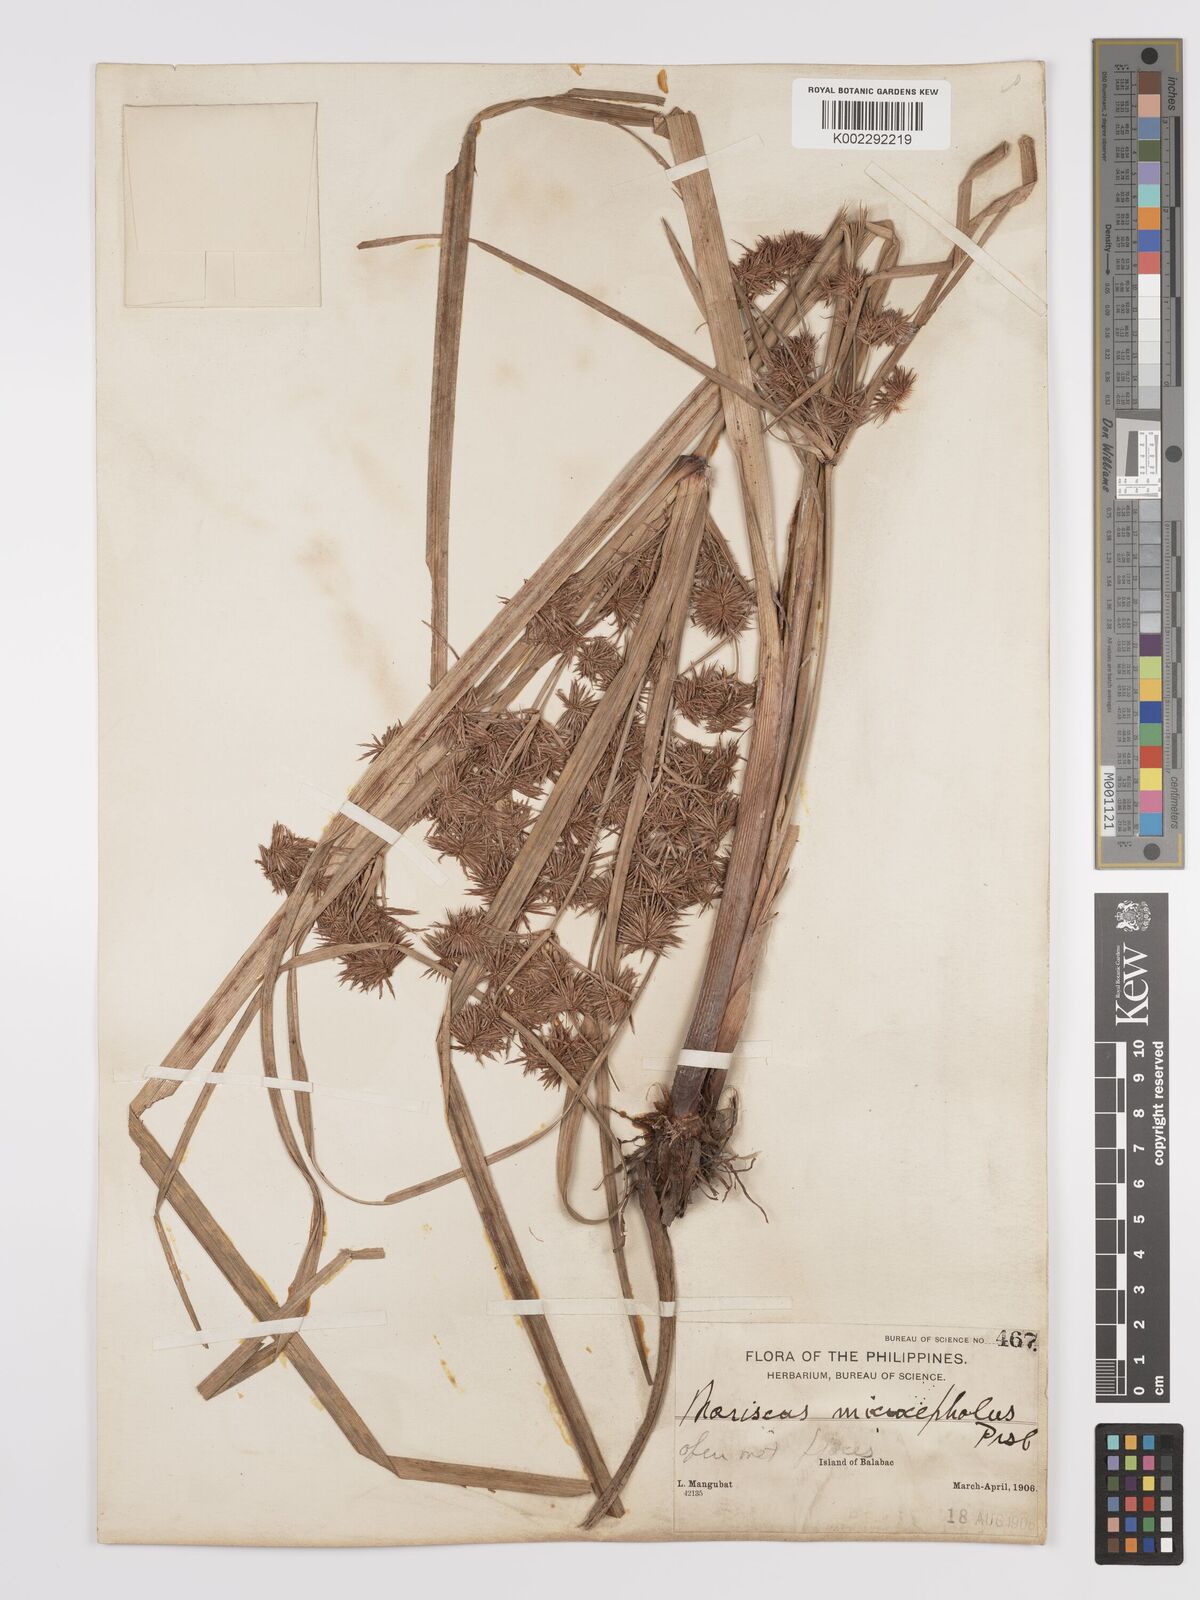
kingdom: Plantae
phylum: Tracheophyta
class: Liliopsida
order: Poales
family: Cyperaceae
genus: Cyperus
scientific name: Cyperus compactus
